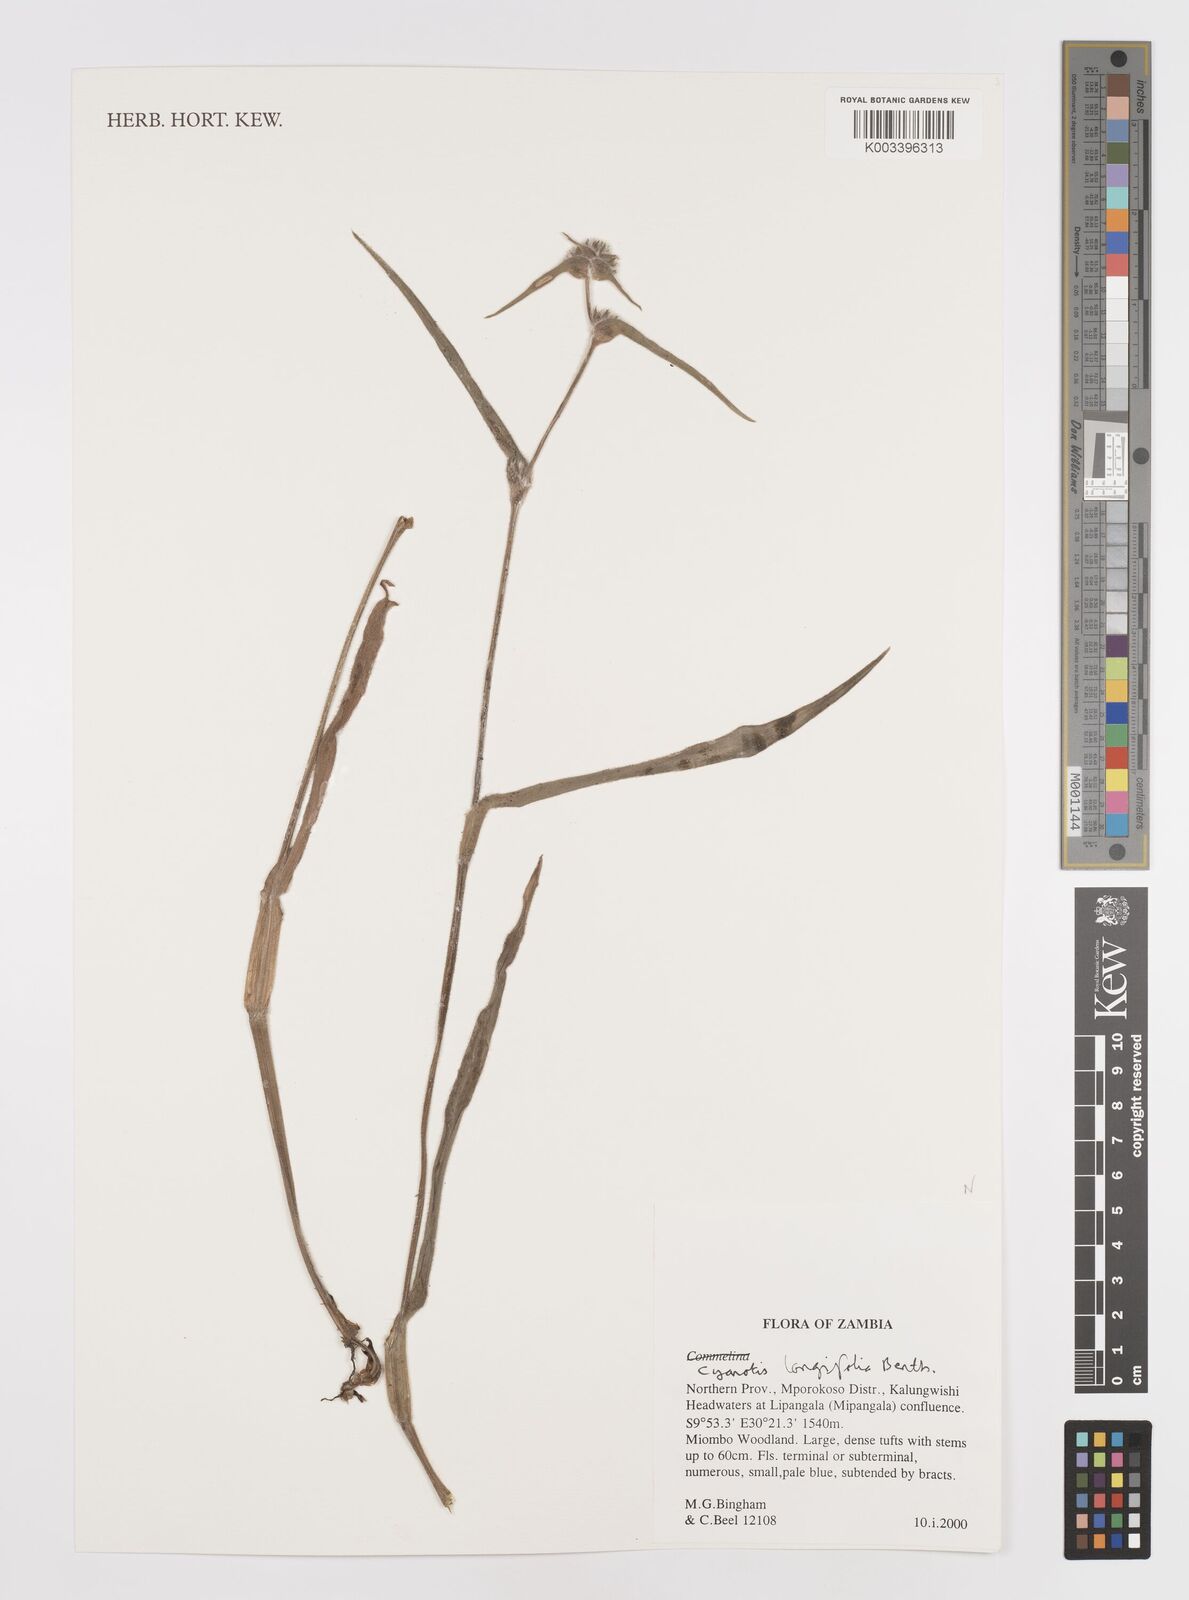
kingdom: Plantae
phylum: Tracheophyta
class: Liliopsida
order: Commelinales
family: Commelinaceae
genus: Cyanotis
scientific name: Cyanotis longifolia
